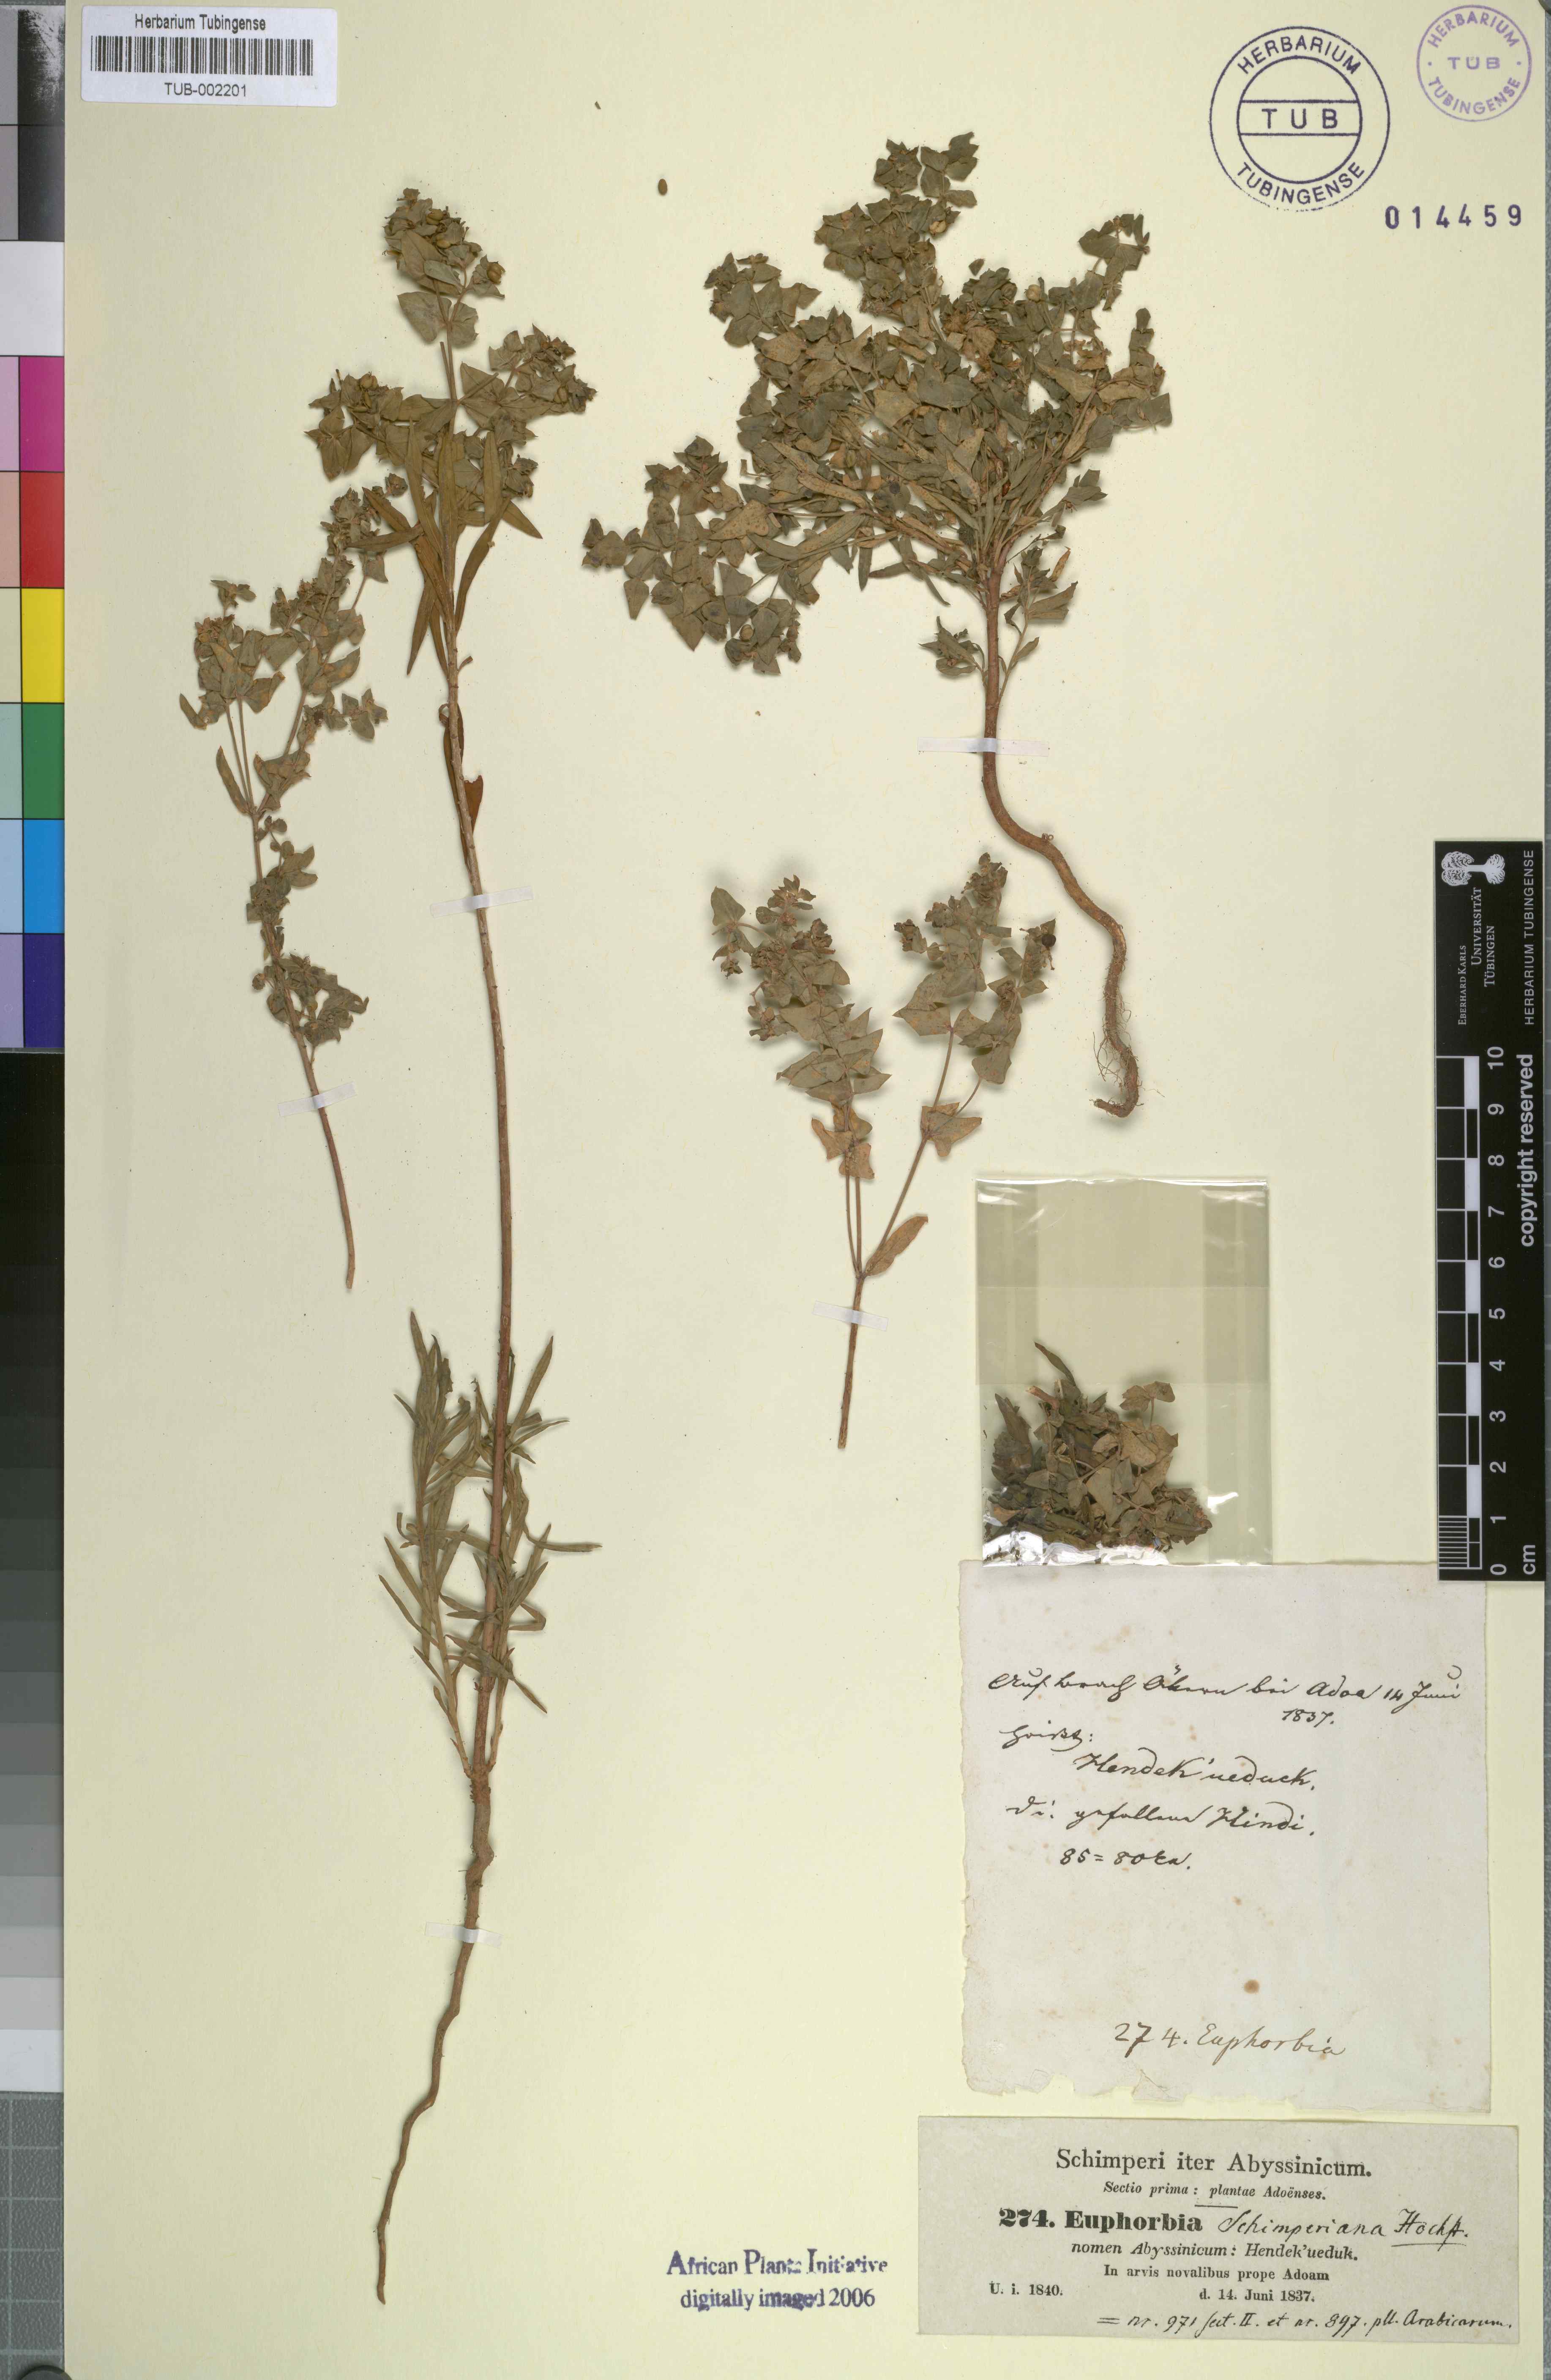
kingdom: Plantae
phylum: Tracheophyta
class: Magnoliopsida
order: Malpighiales
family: Euphorbiaceae
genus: Euphorbia
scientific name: Euphorbia schimperiana
